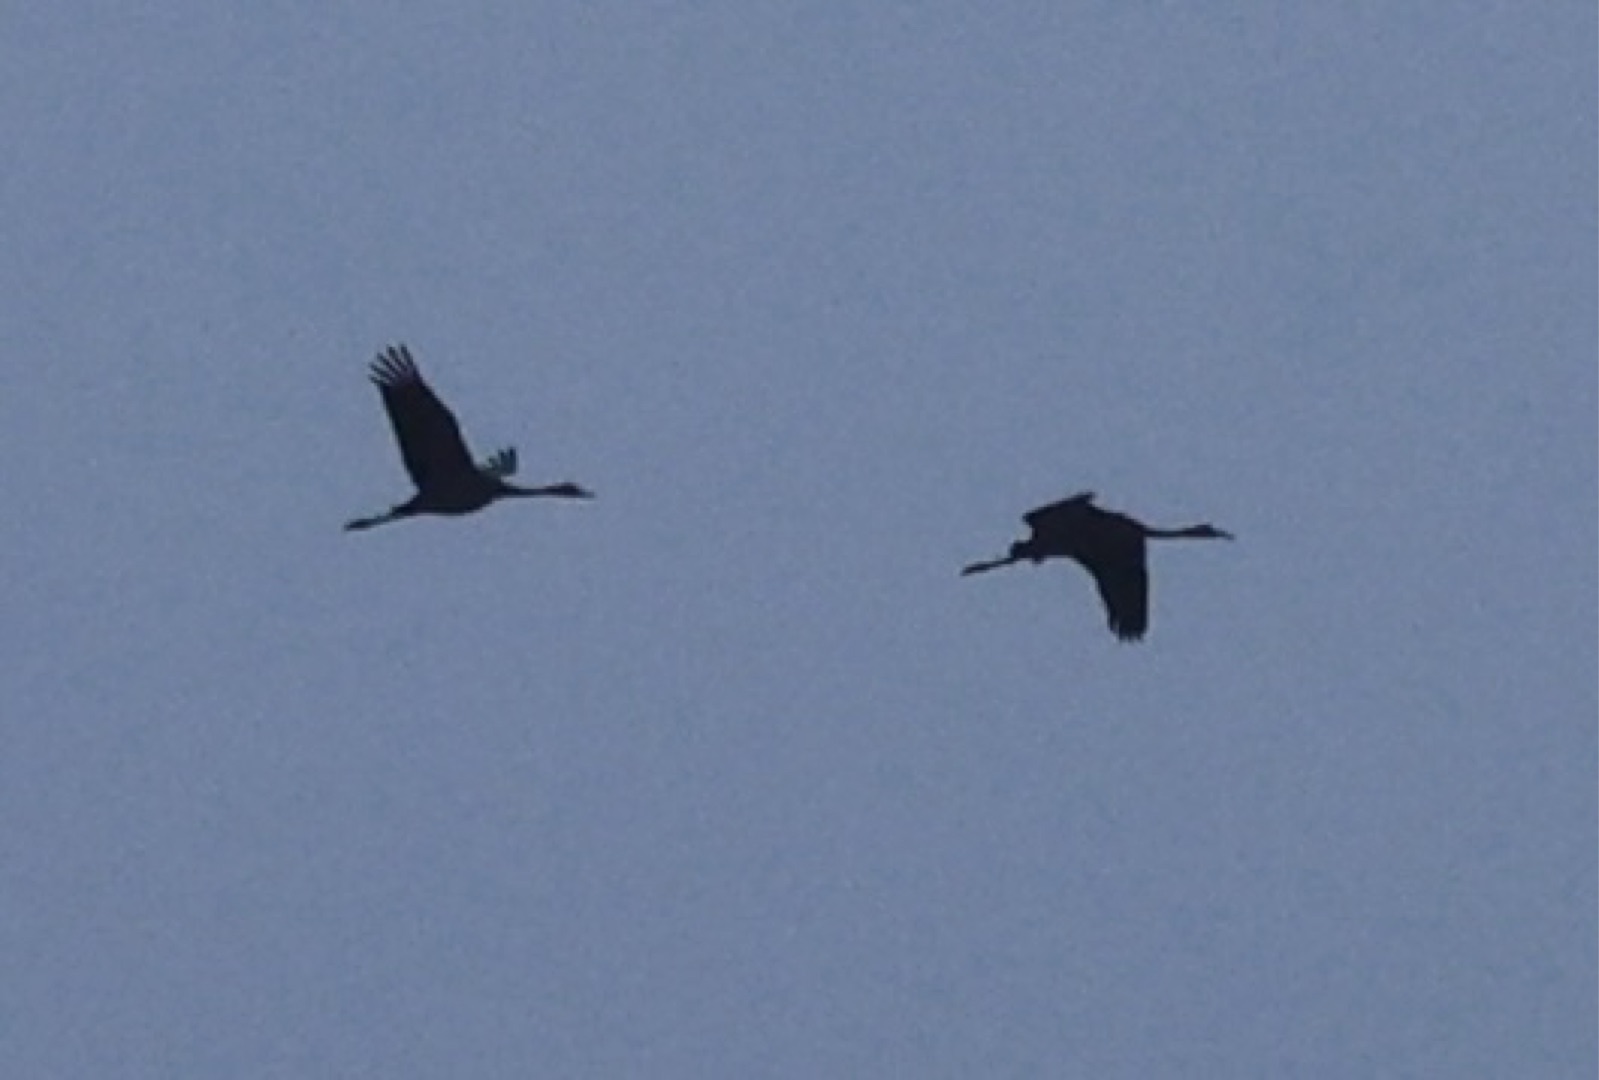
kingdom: Animalia
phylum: Chordata
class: Aves
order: Gruiformes
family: Gruidae
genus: Grus
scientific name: Grus grus
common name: Trane
